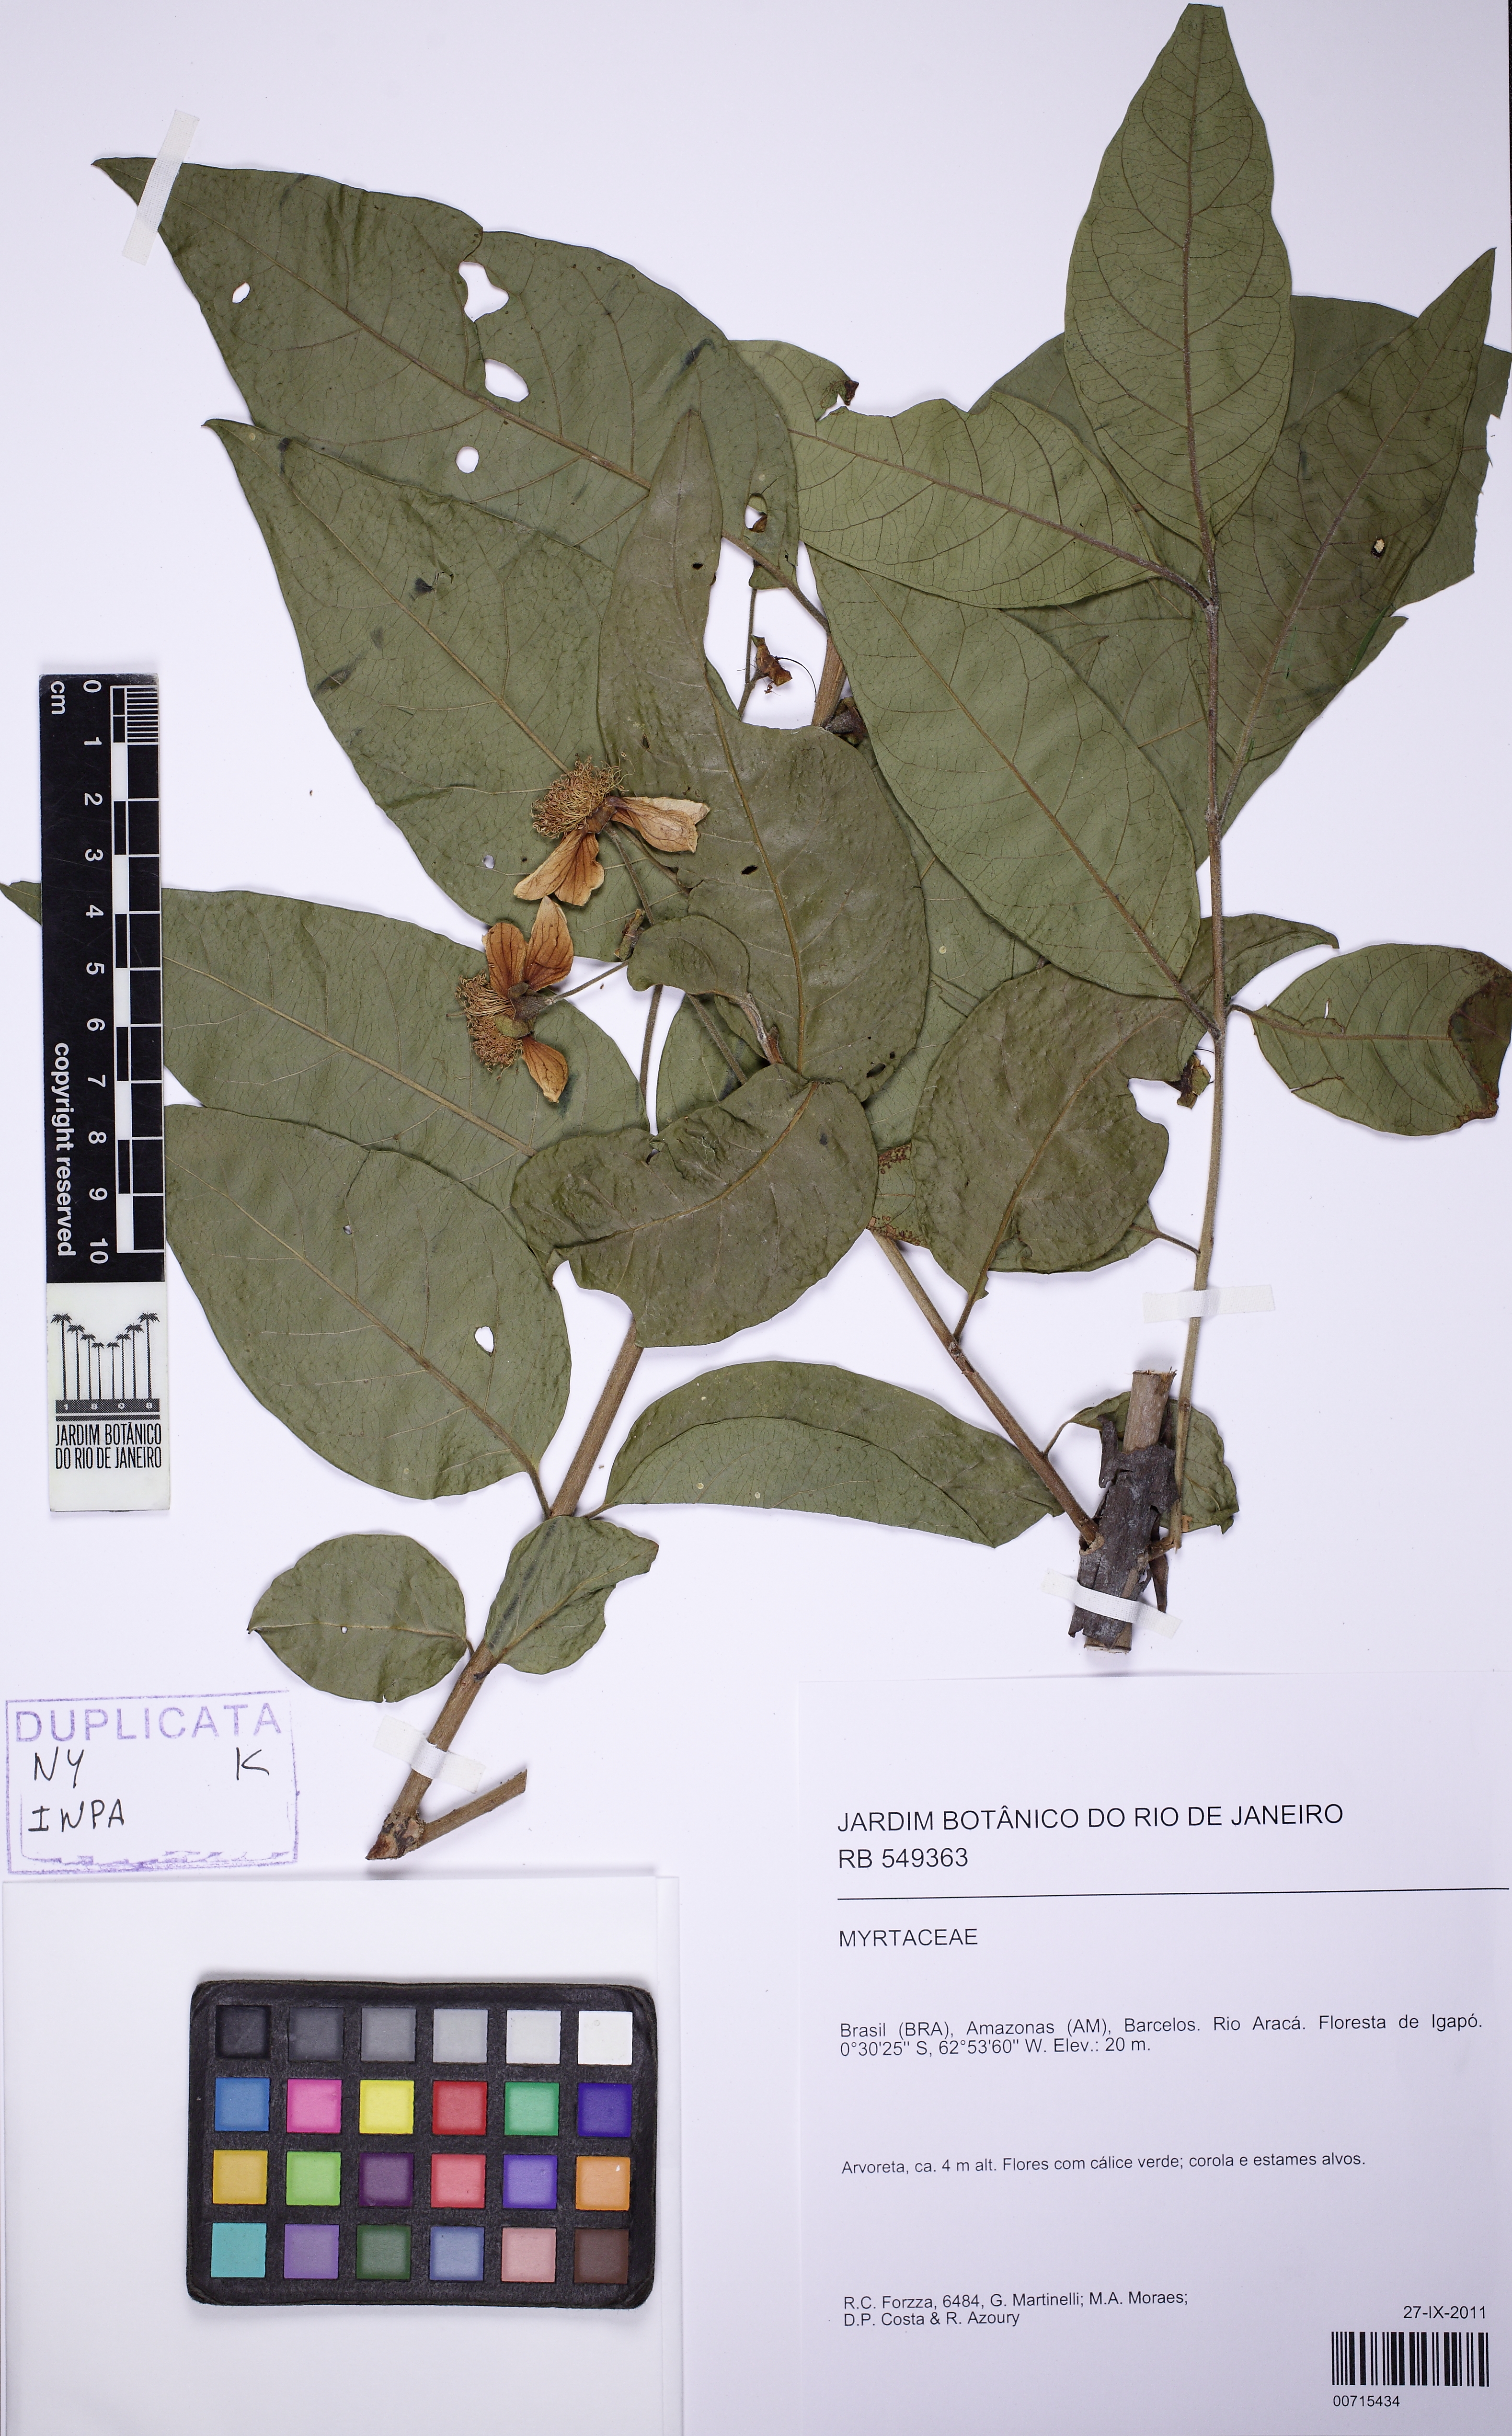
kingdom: Plantae
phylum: Tracheophyta
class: Magnoliopsida
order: Myrtales
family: Myrtaceae
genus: Psidium
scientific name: Psidium densicomum
